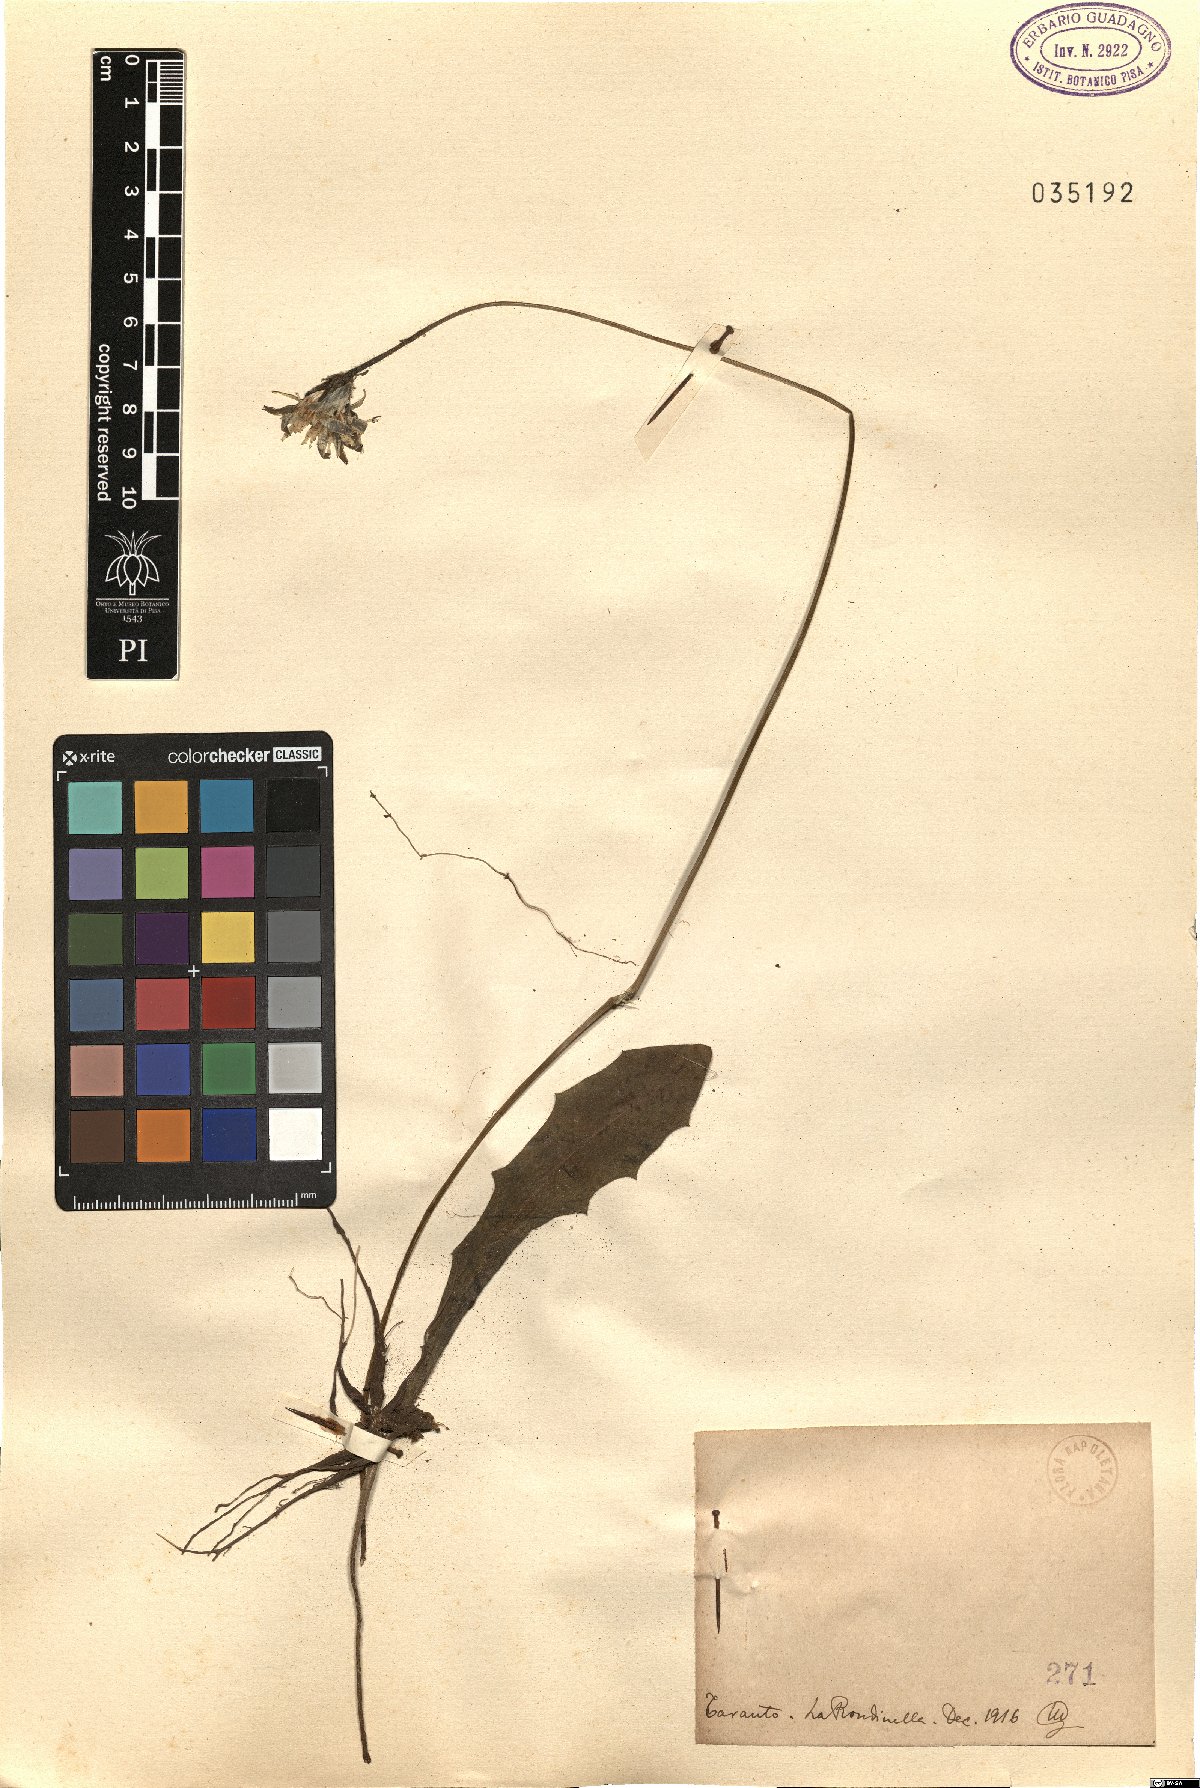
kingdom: Plantae
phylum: Tracheophyta
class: Magnoliopsida
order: Asterales
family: Asteraceae
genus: Thrincia
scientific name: Thrincia
